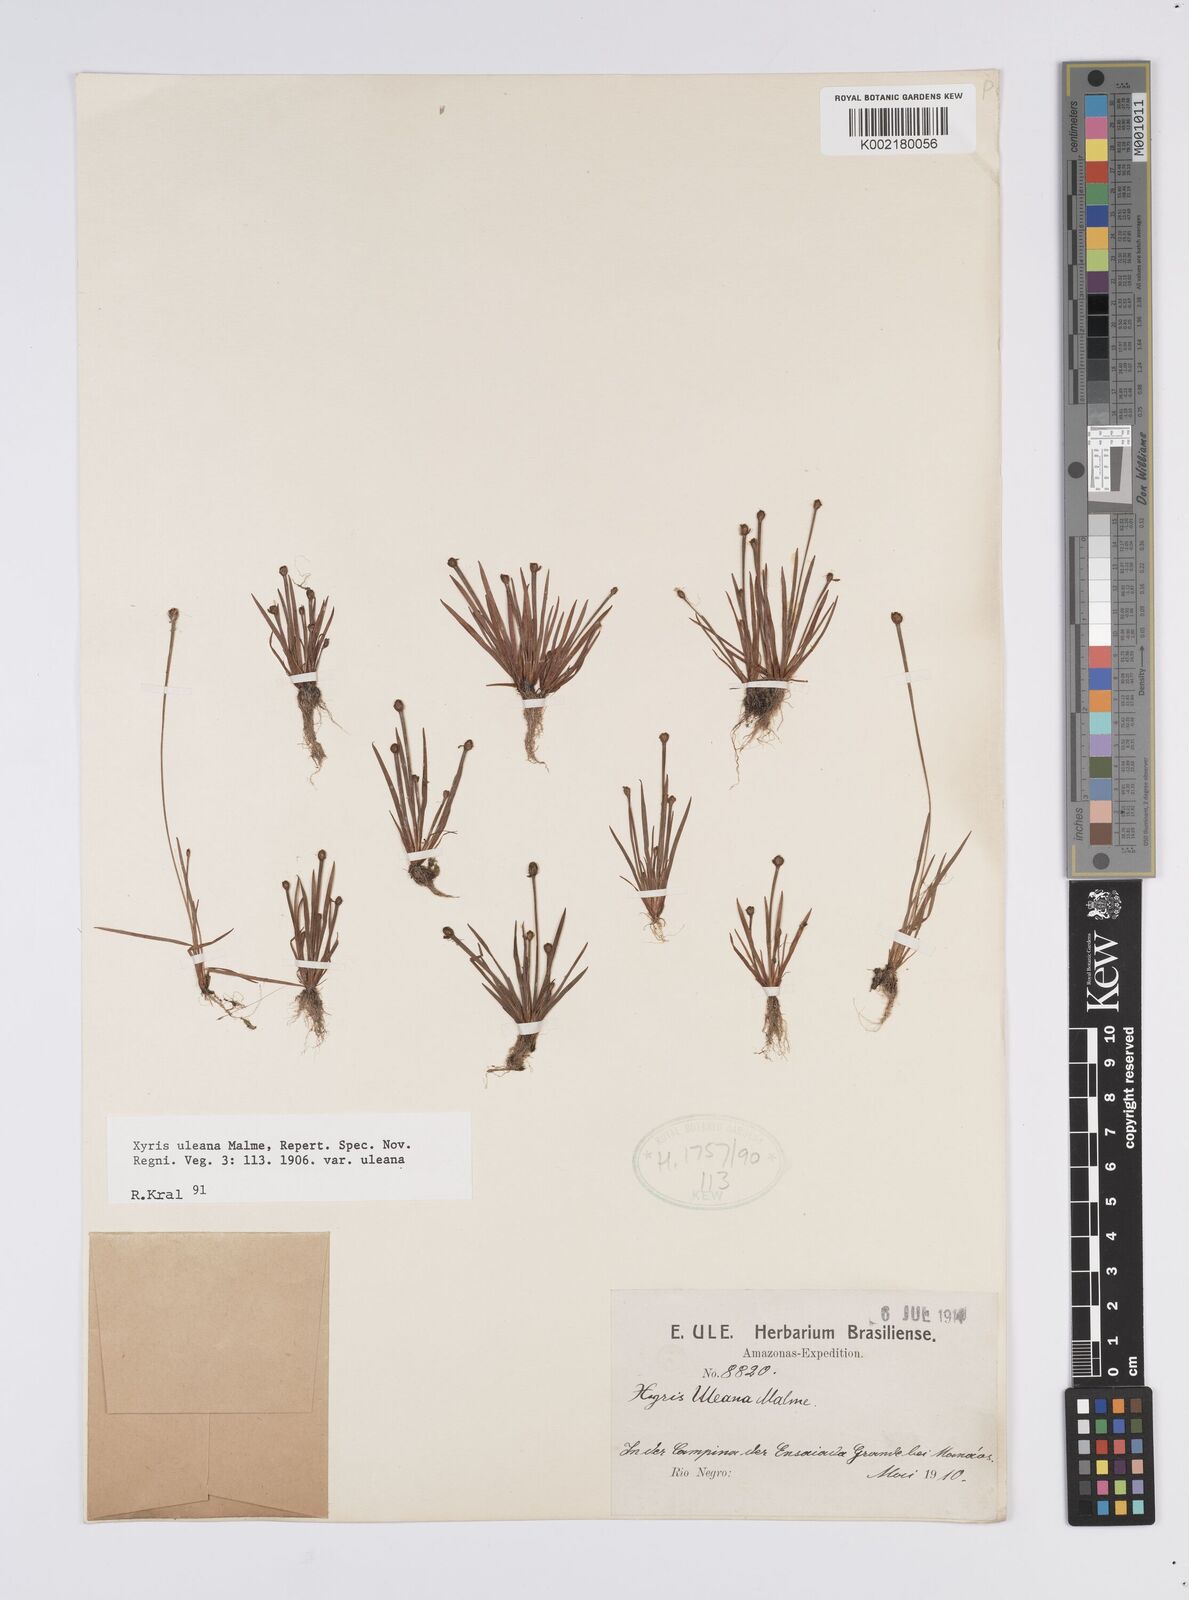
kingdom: Plantae
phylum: Tracheophyta
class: Liliopsida
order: Poales
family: Xyridaceae
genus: Xyris
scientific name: Xyris uleana
